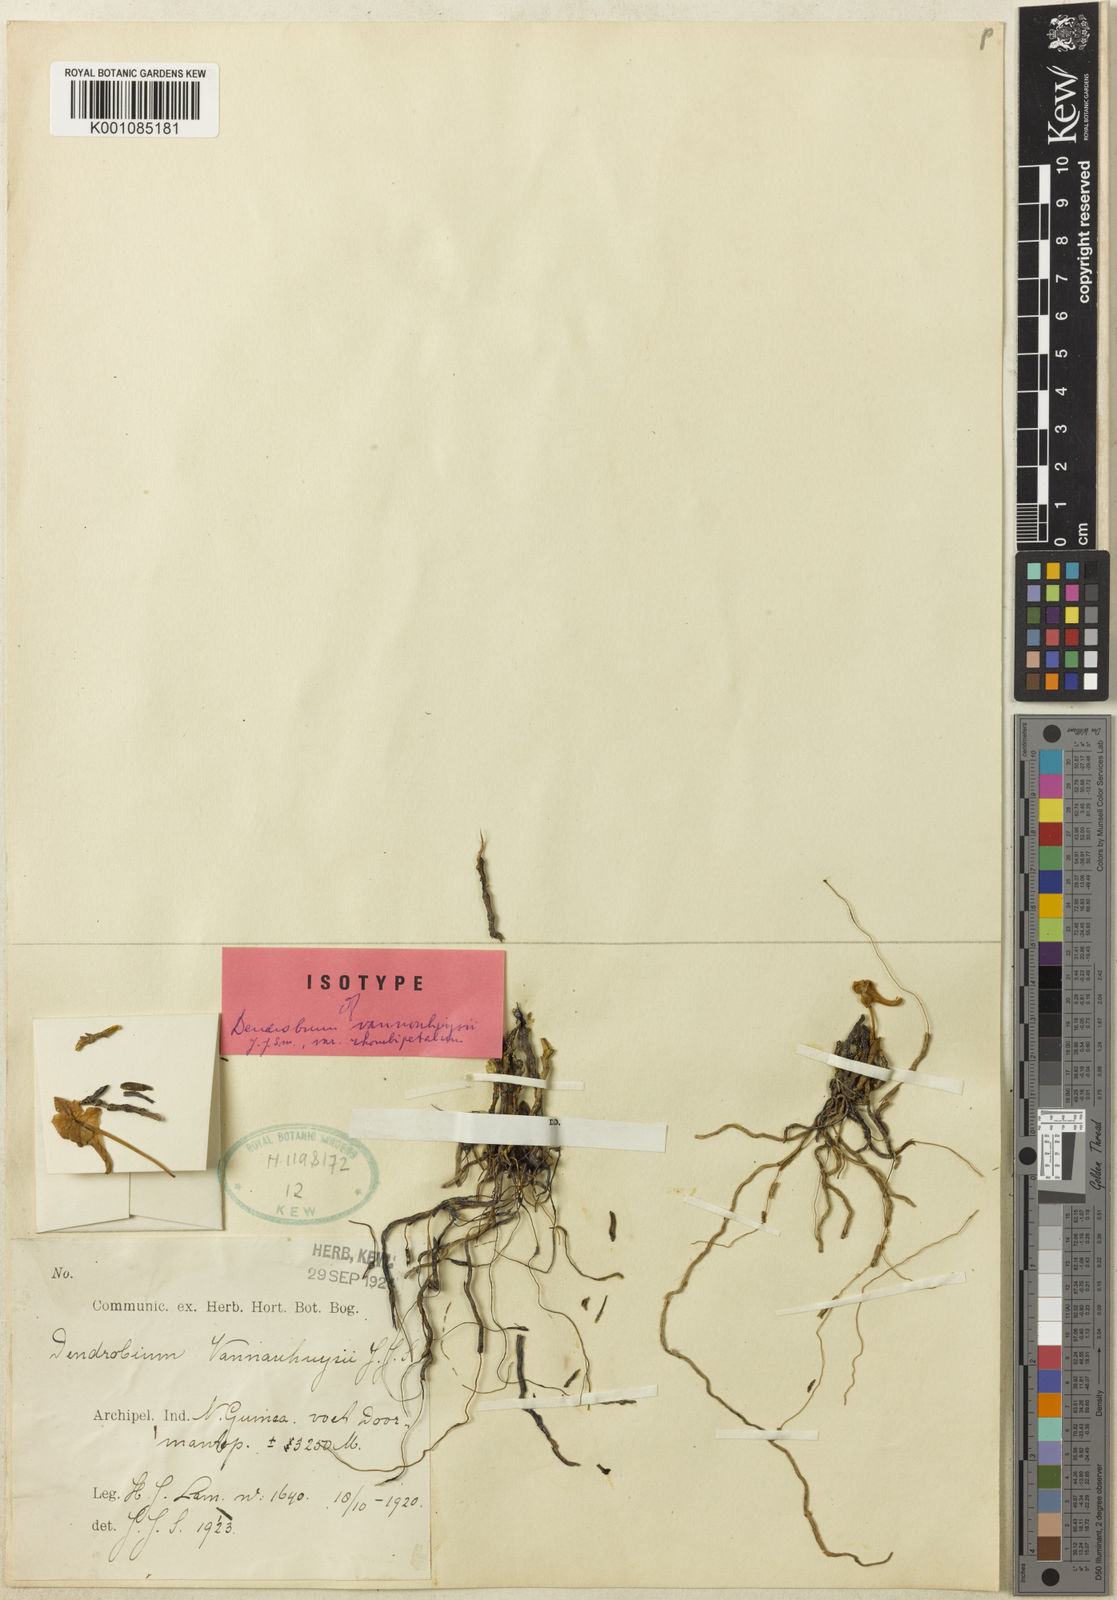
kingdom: Plantae
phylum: Tracheophyta
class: Liliopsida
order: Asparagales
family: Orchidaceae
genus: Dendrobium
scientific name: Dendrobium vannouhuysii
